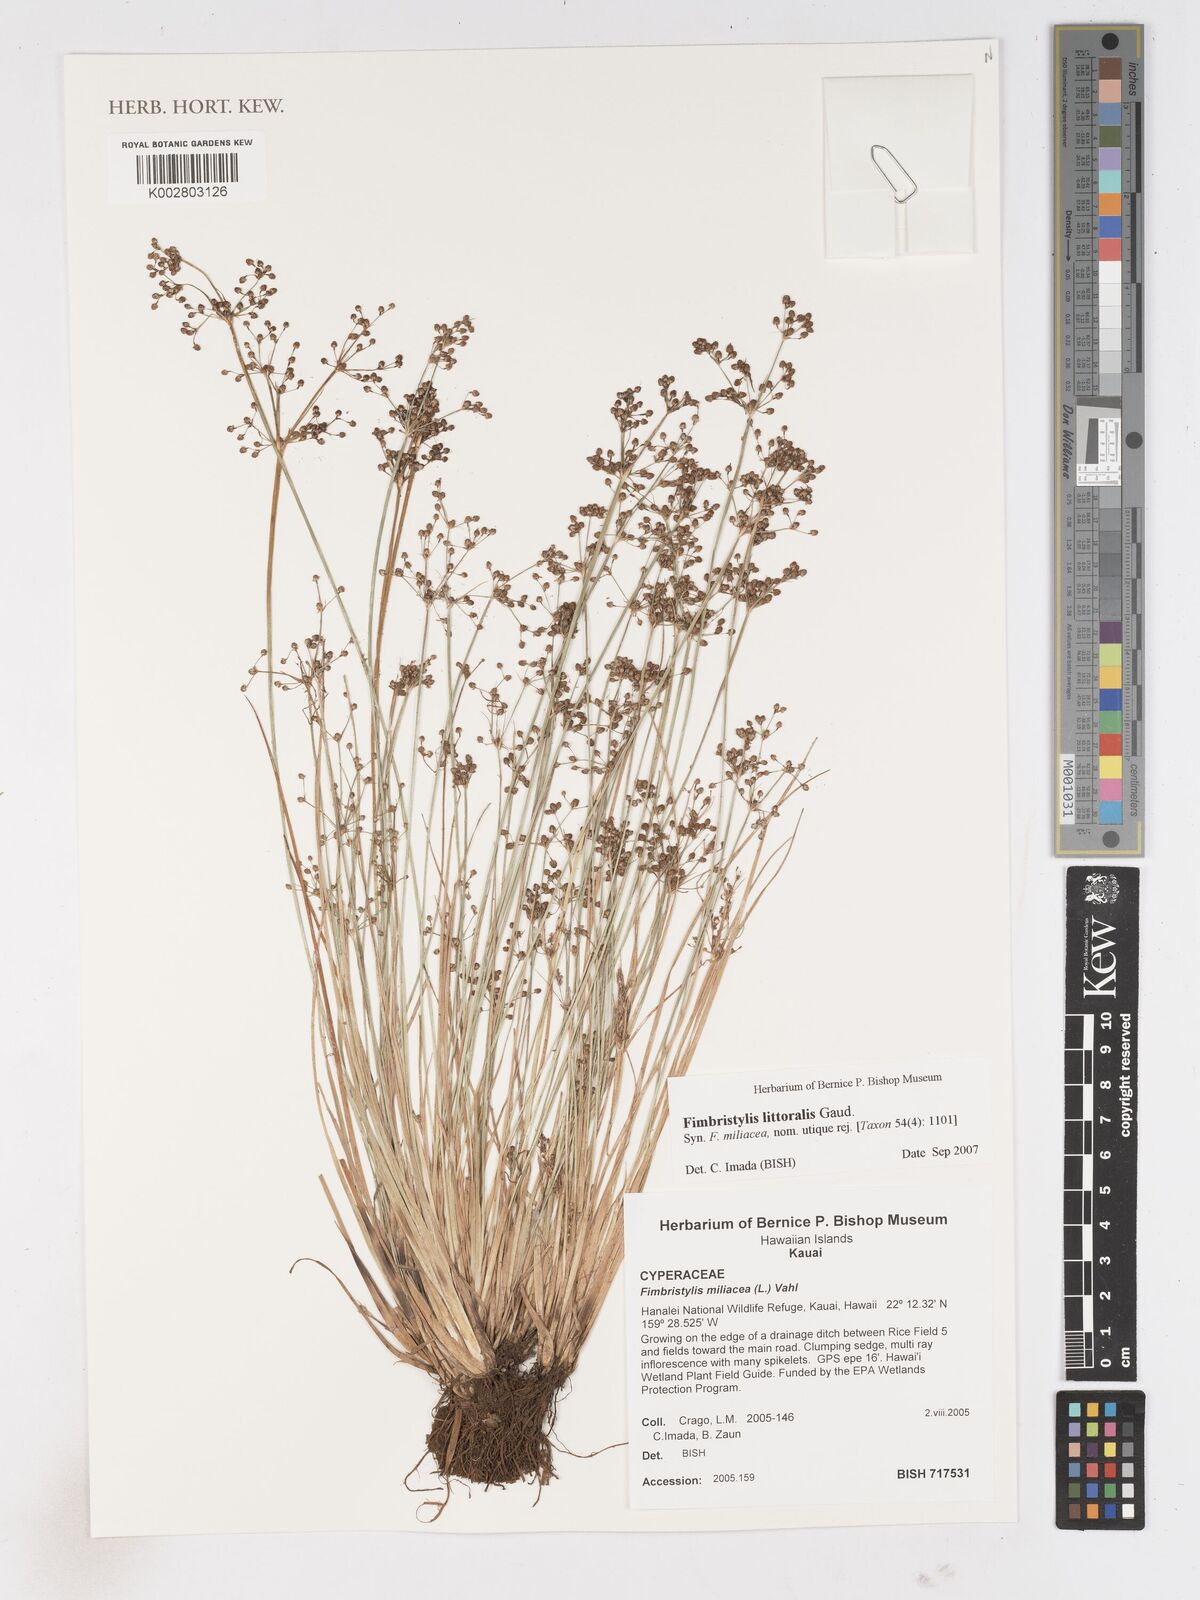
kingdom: Plantae
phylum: Tracheophyta
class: Liliopsida
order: Poales
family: Cyperaceae
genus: Fimbristylis
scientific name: Fimbristylis littoralis
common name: Fimbry
